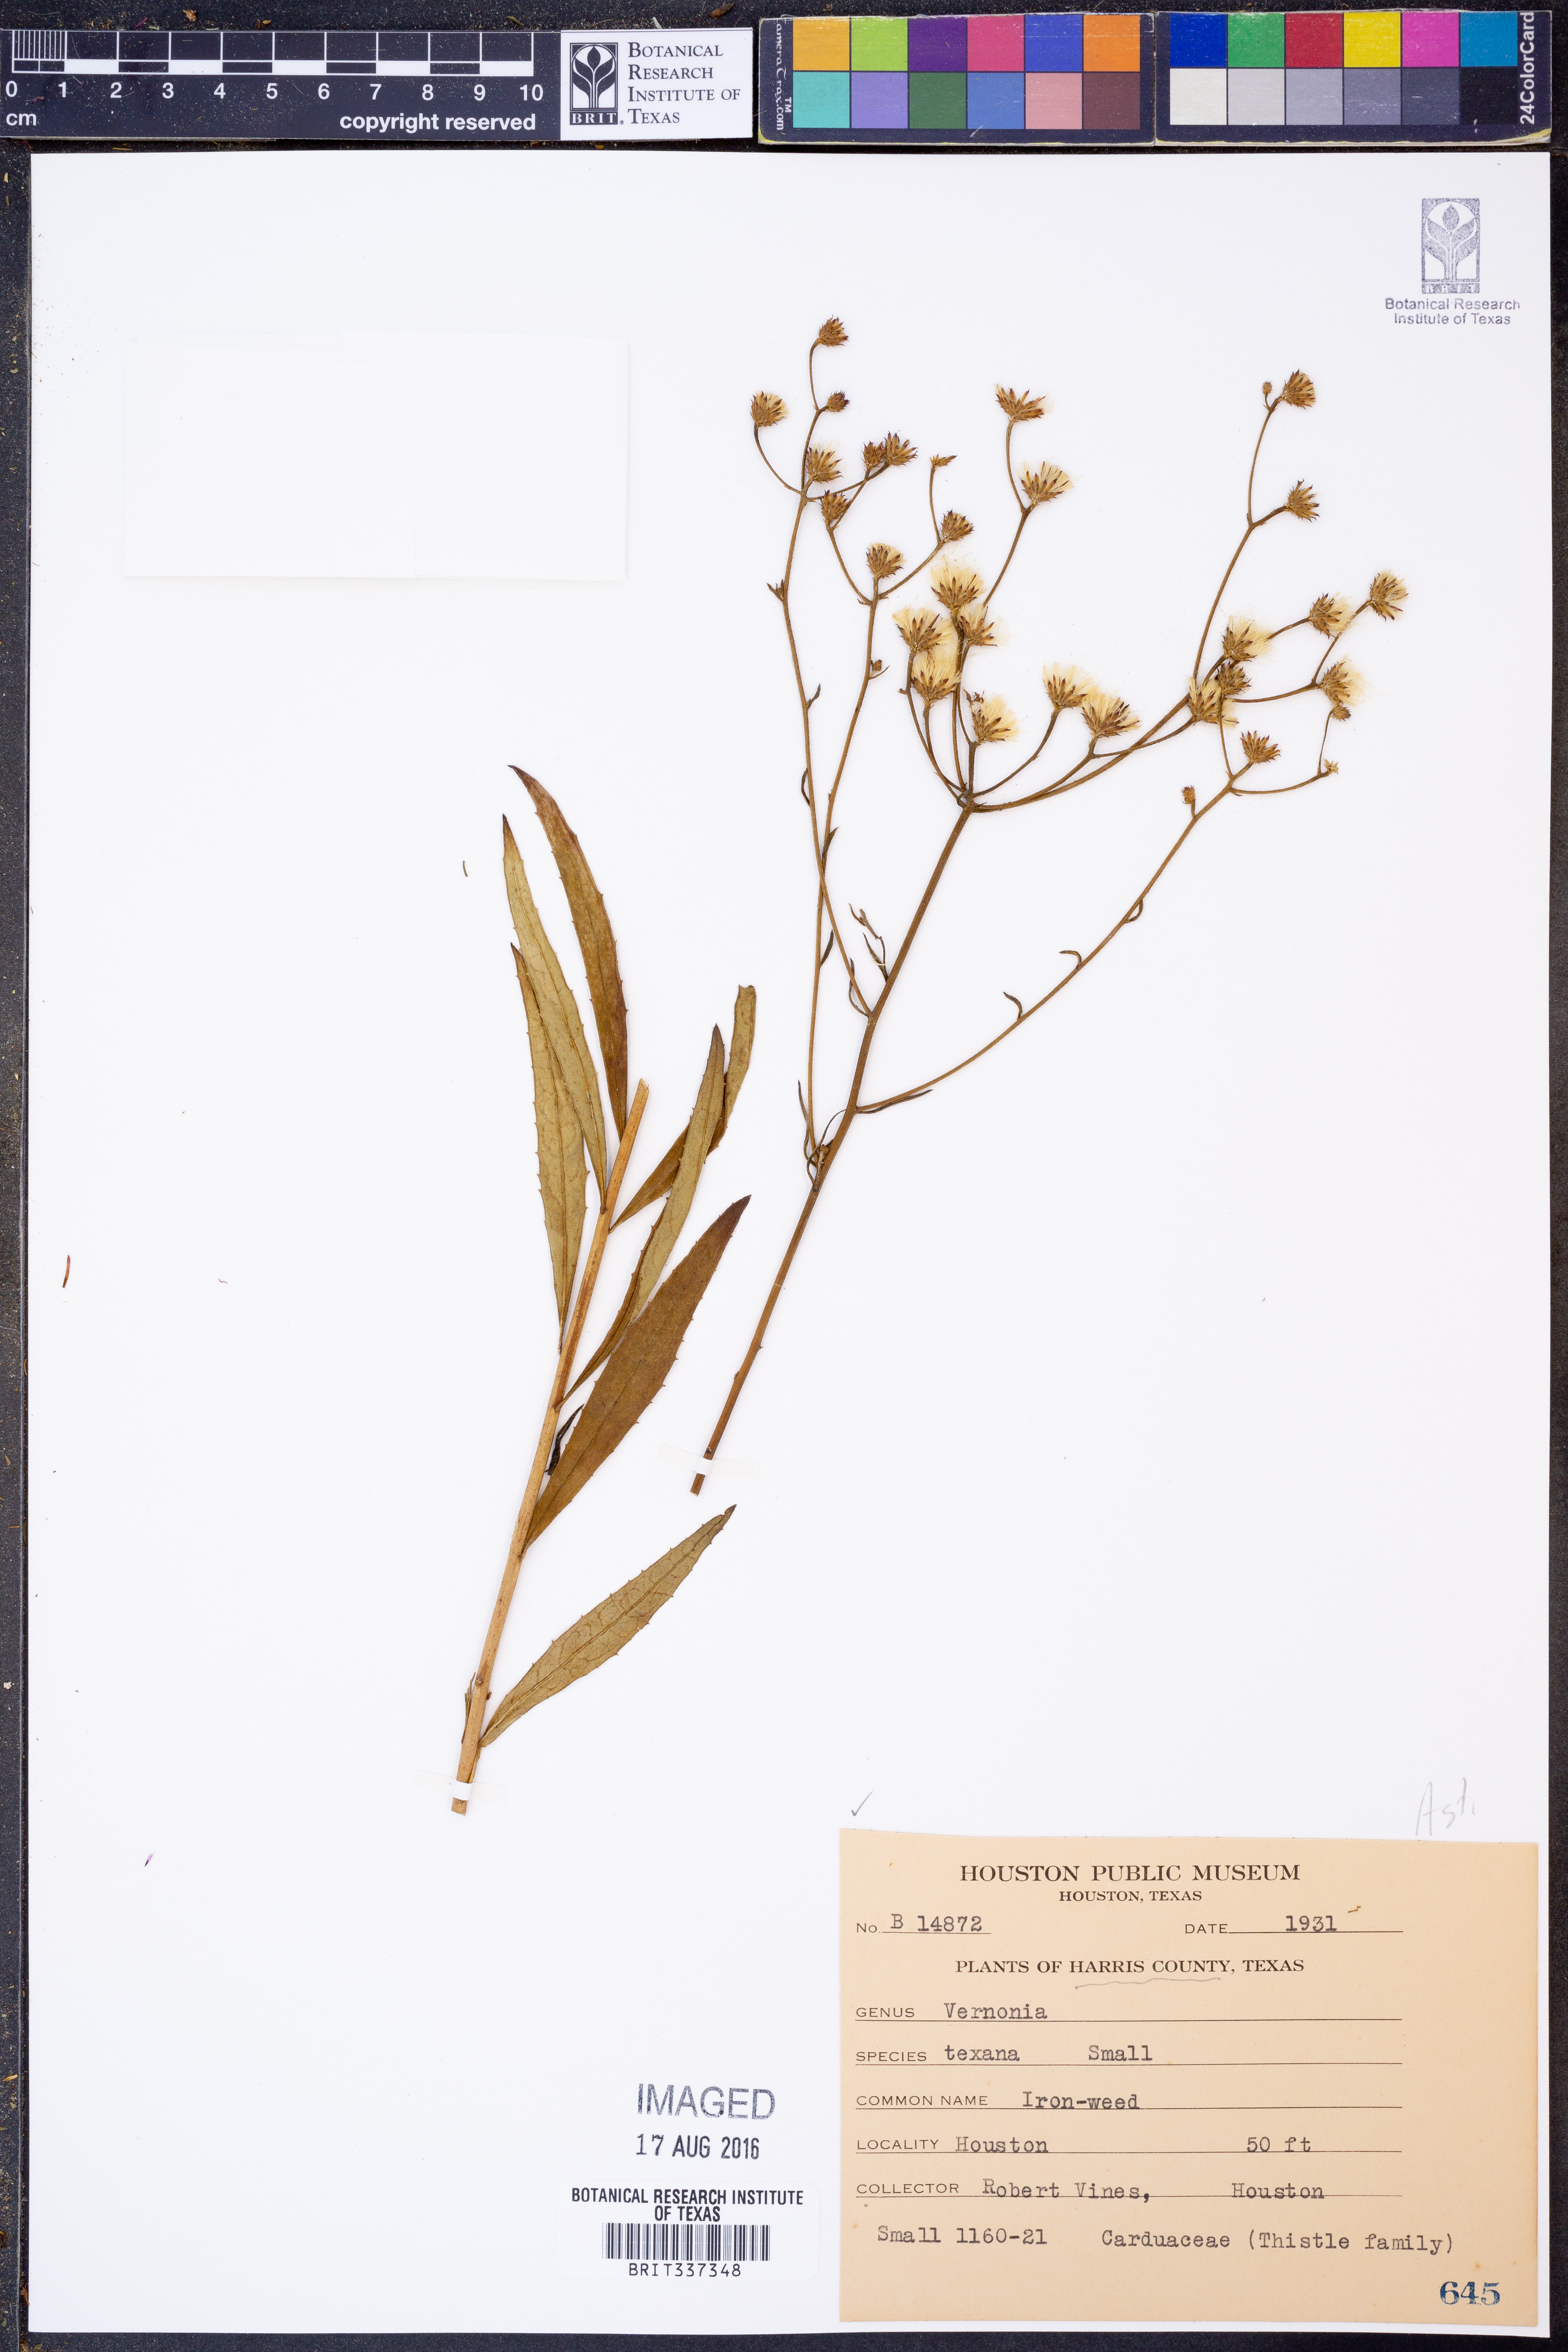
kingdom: Plantae
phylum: Tracheophyta
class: Magnoliopsida
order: Asterales
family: Asteraceae
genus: Vernonia
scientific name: Vernonia texana
